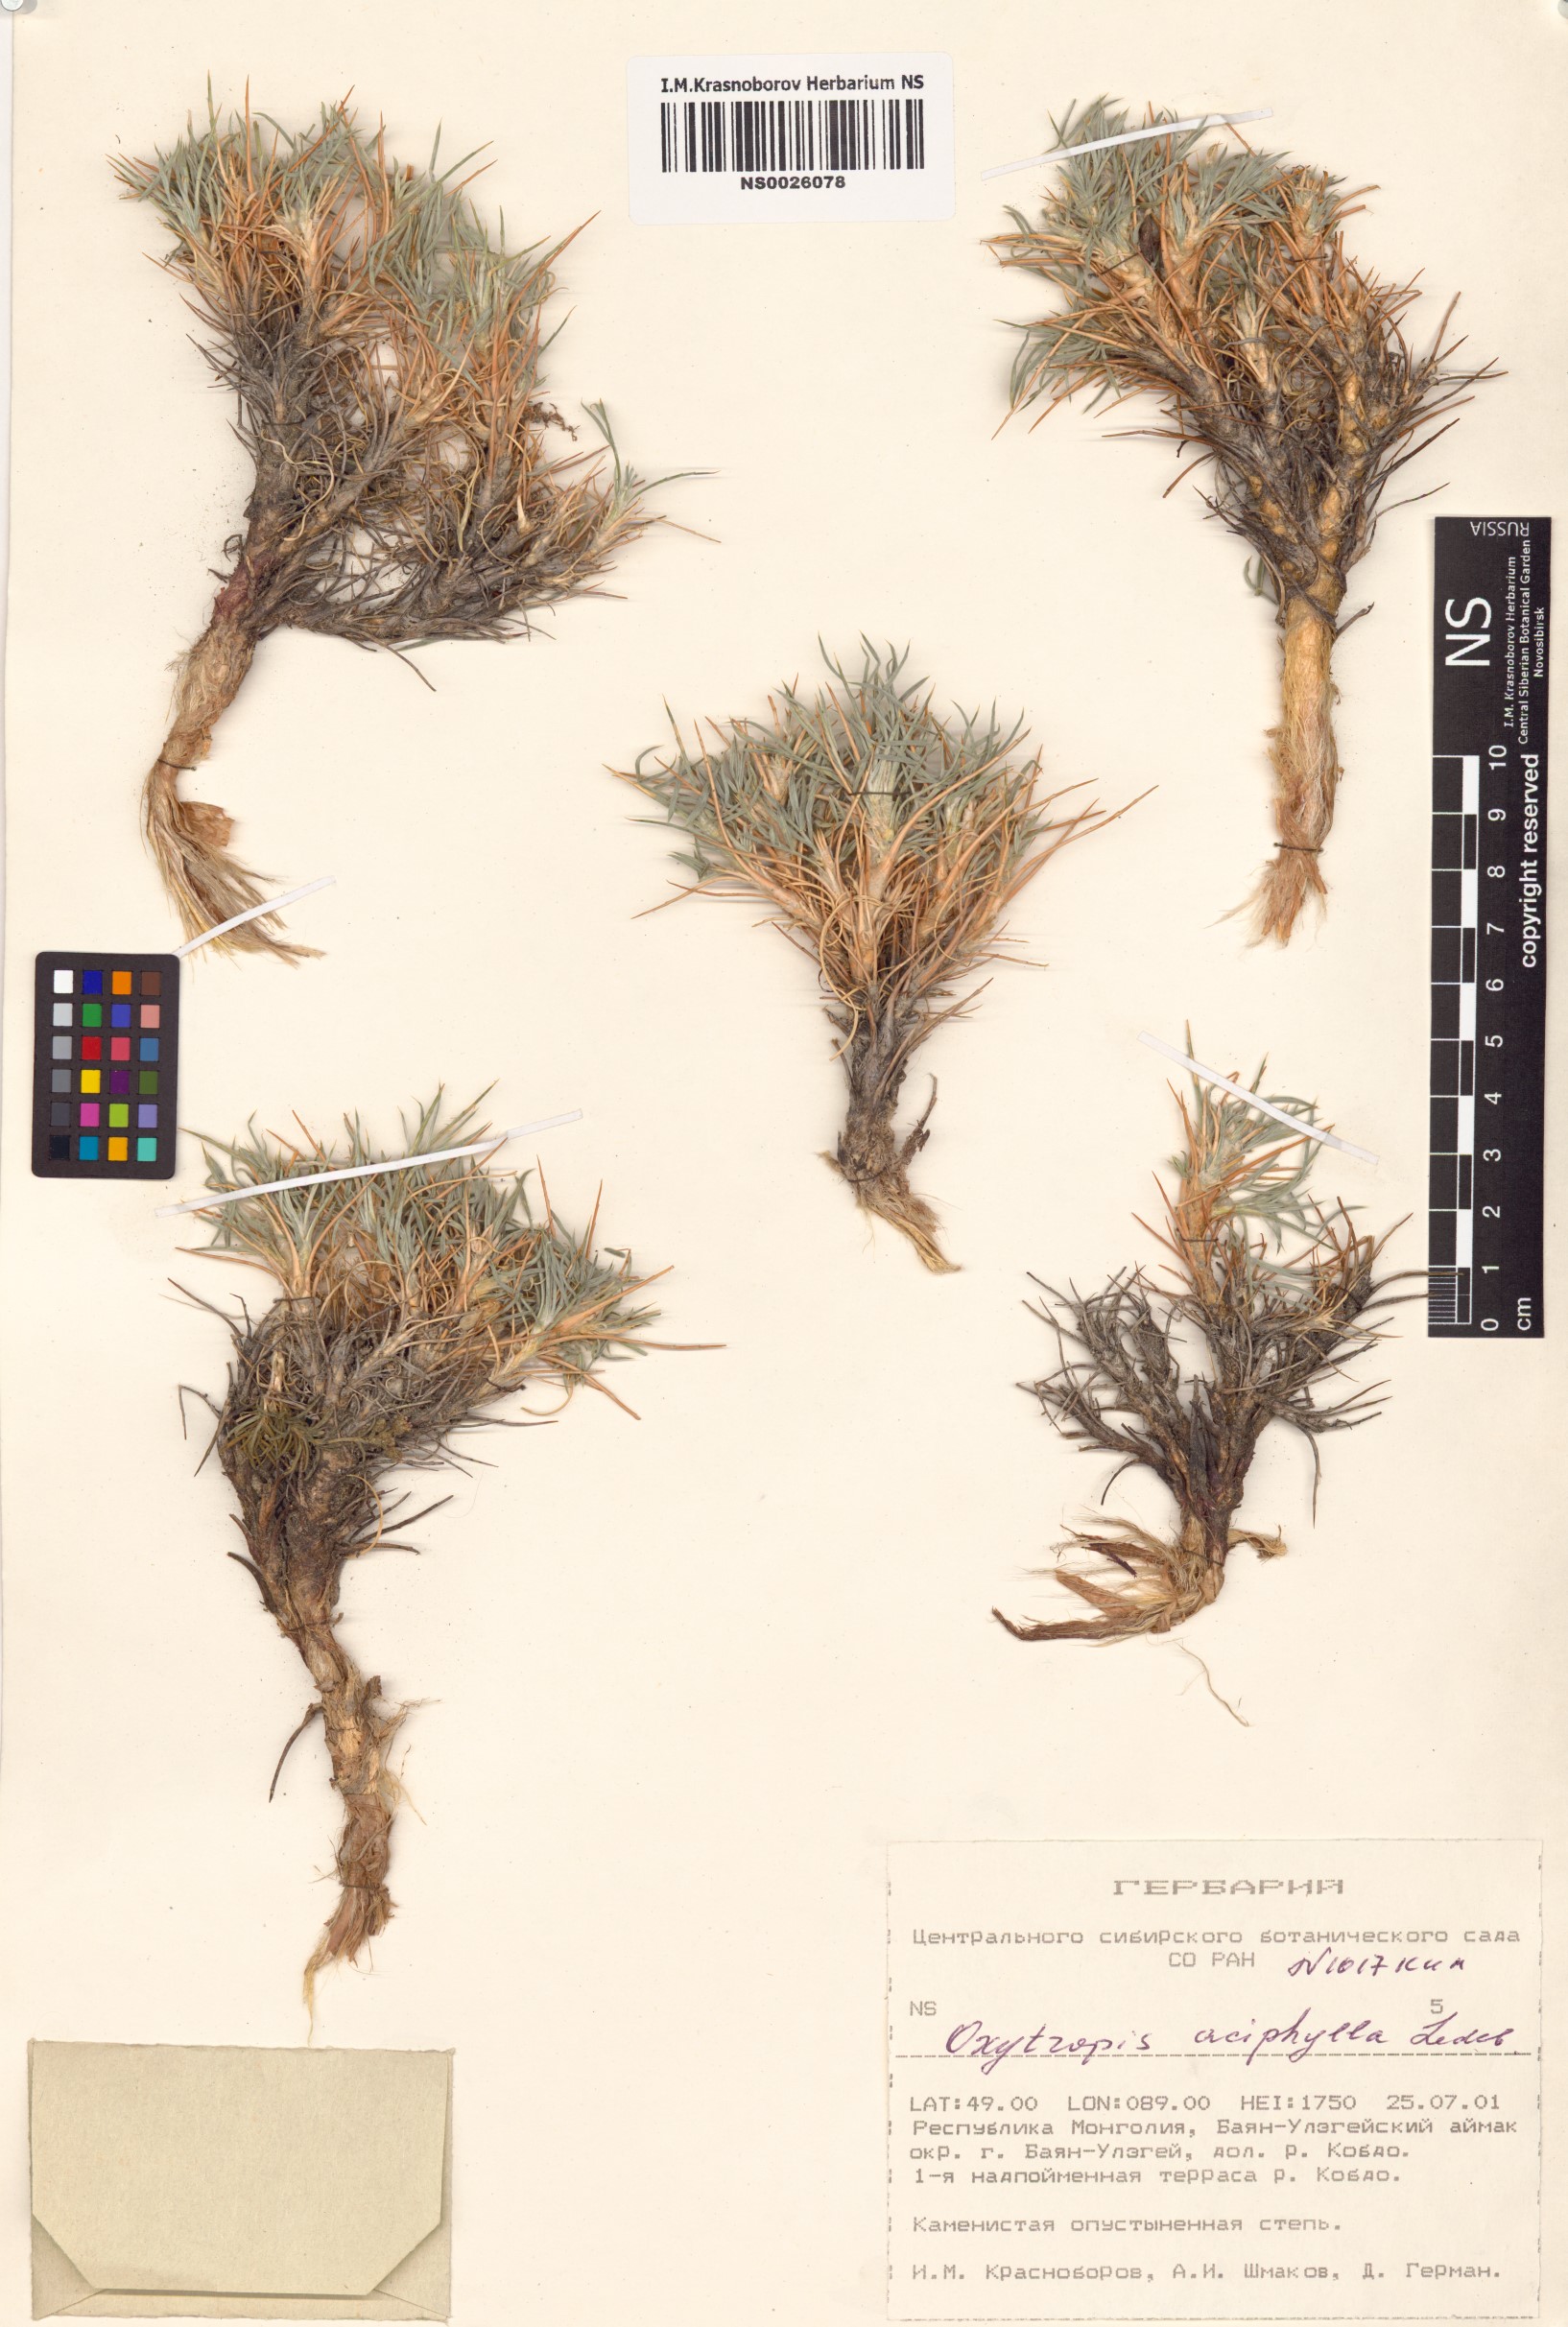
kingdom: Plantae
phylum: Tracheophyta
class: Magnoliopsida
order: Fabales
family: Fabaceae
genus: Oxytropis
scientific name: Oxytropis aciphylla
